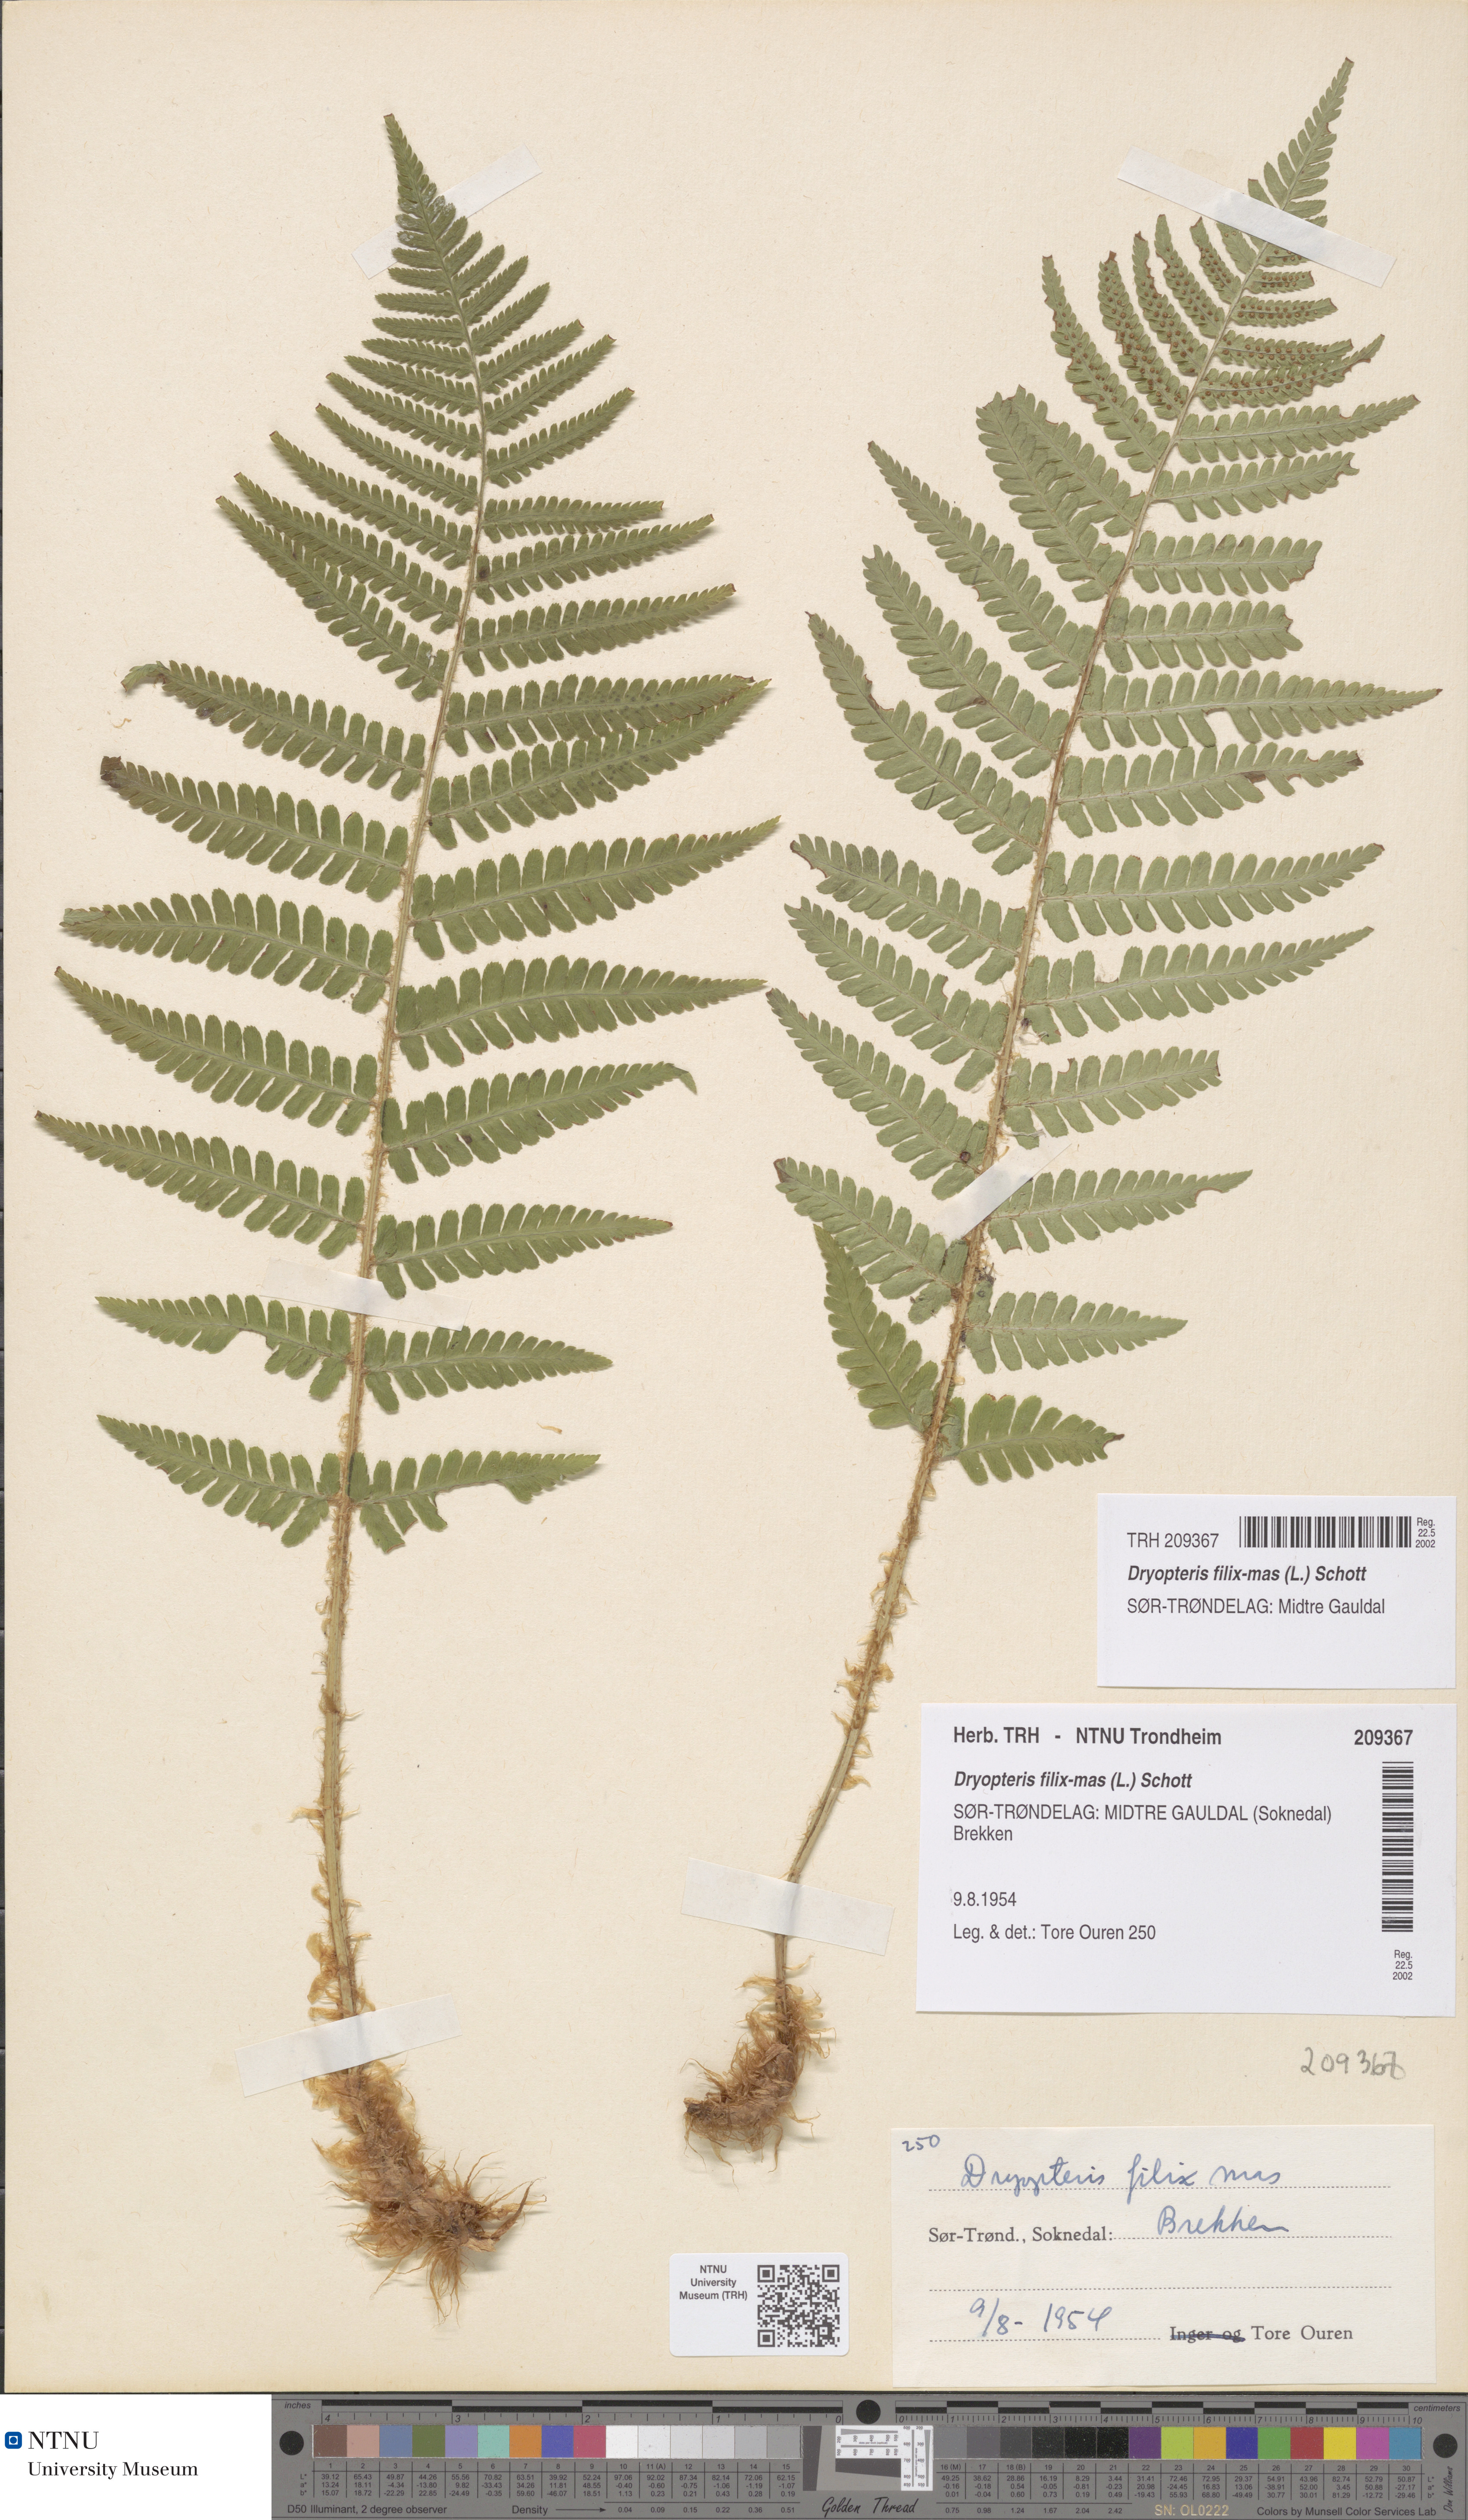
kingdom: Plantae
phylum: Tracheophyta
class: Polypodiopsida
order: Polypodiales
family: Dryopteridaceae
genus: Dryopteris
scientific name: Dryopteris filix-mas
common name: Male fern
